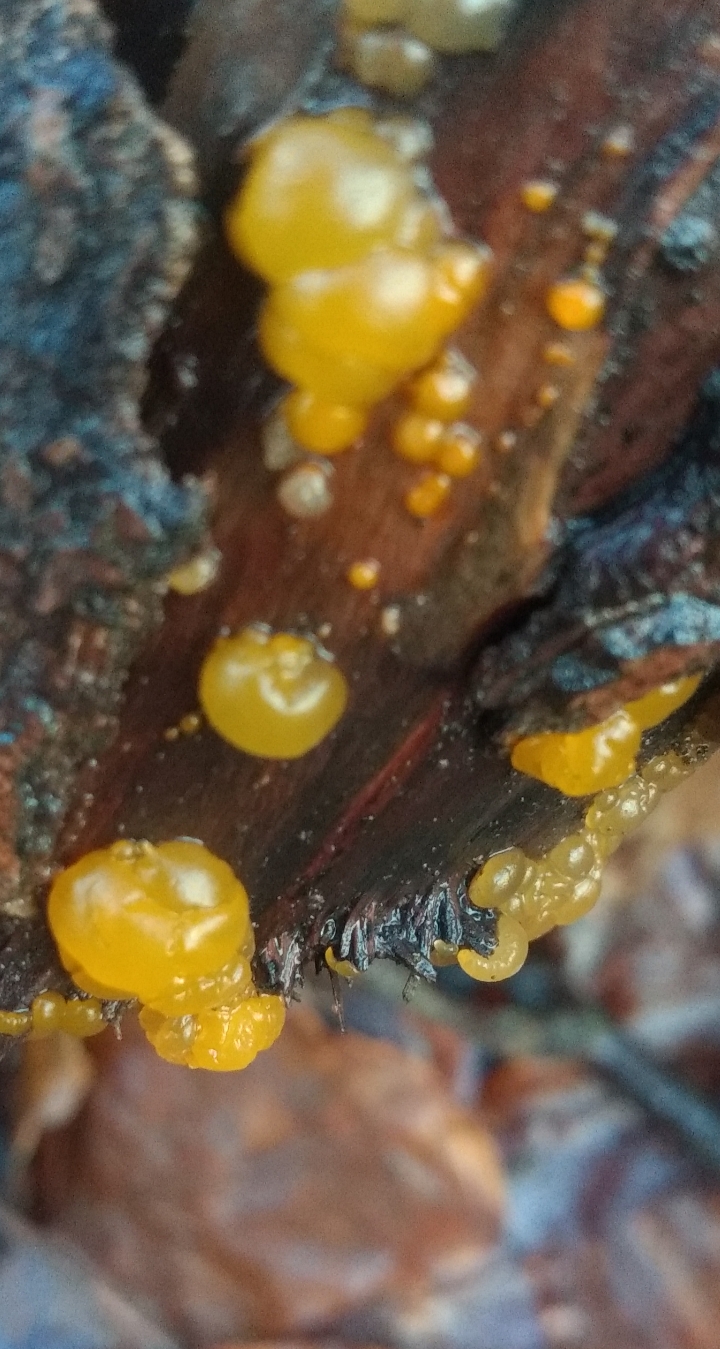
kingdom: Fungi
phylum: Basidiomycota
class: Dacrymycetes
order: Dacrymycetales
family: Dacrymycetaceae
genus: Dacrymyces
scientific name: Dacrymyces
